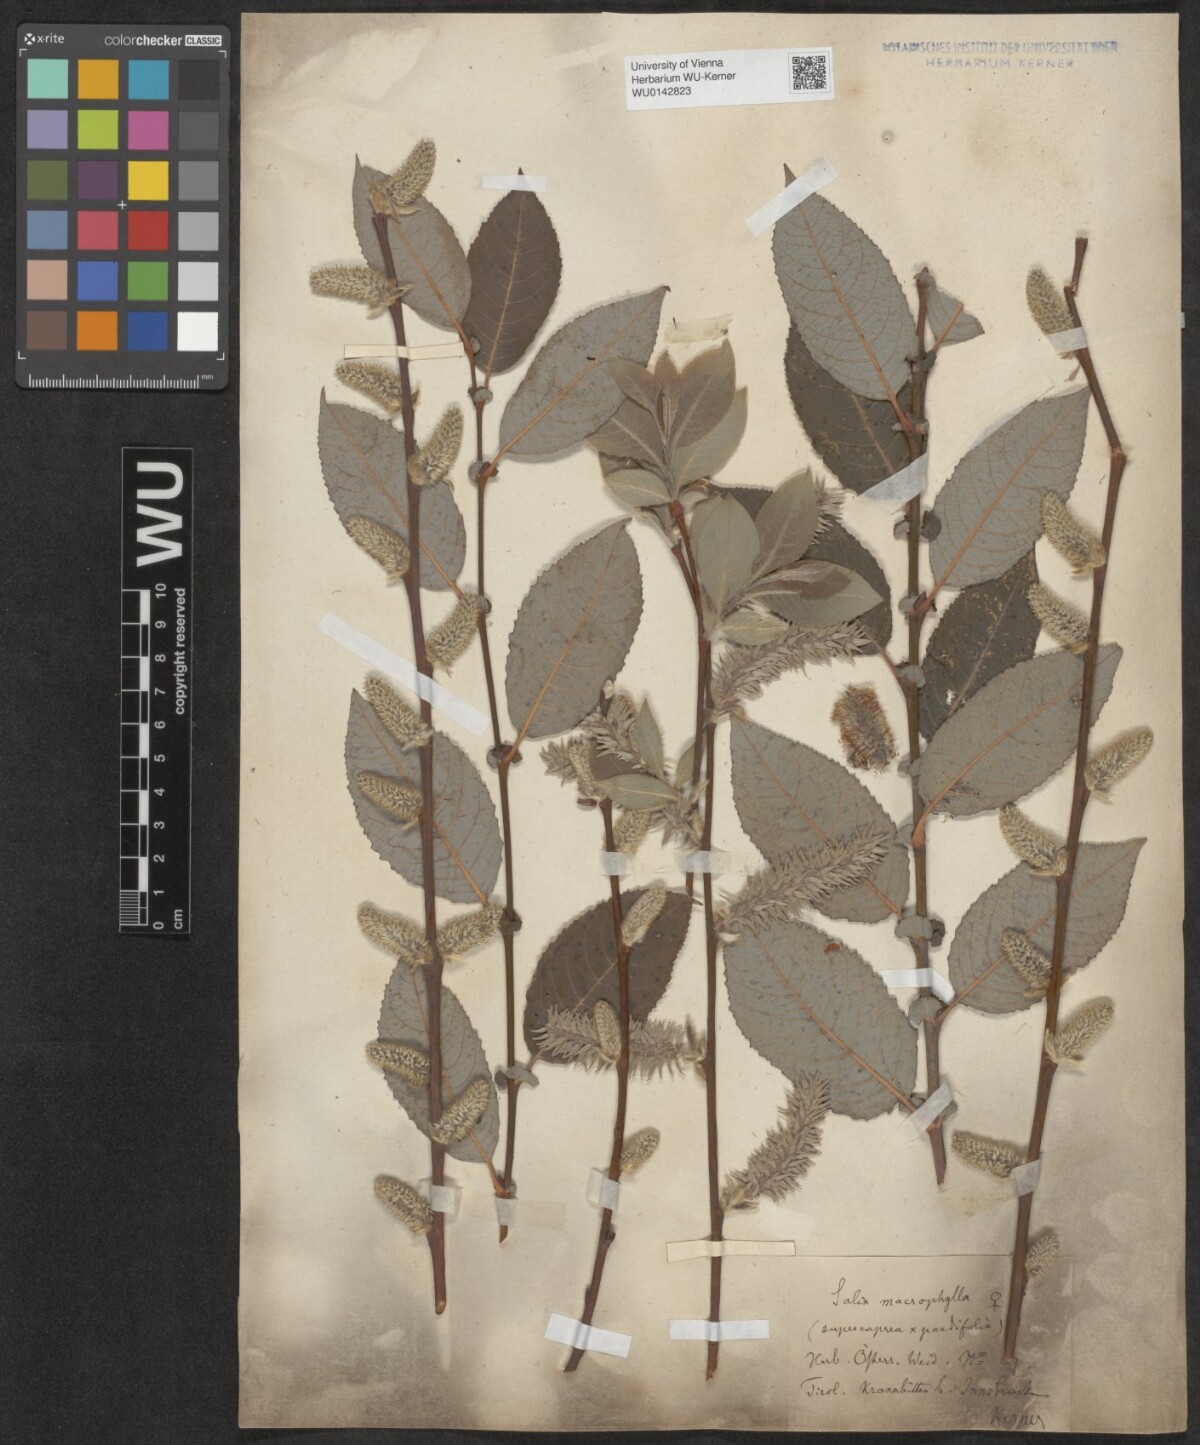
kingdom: Plantae
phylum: Tracheophyta
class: Magnoliopsida
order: Malpighiales
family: Salicaceae
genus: Salix
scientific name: Salix macrophylla
